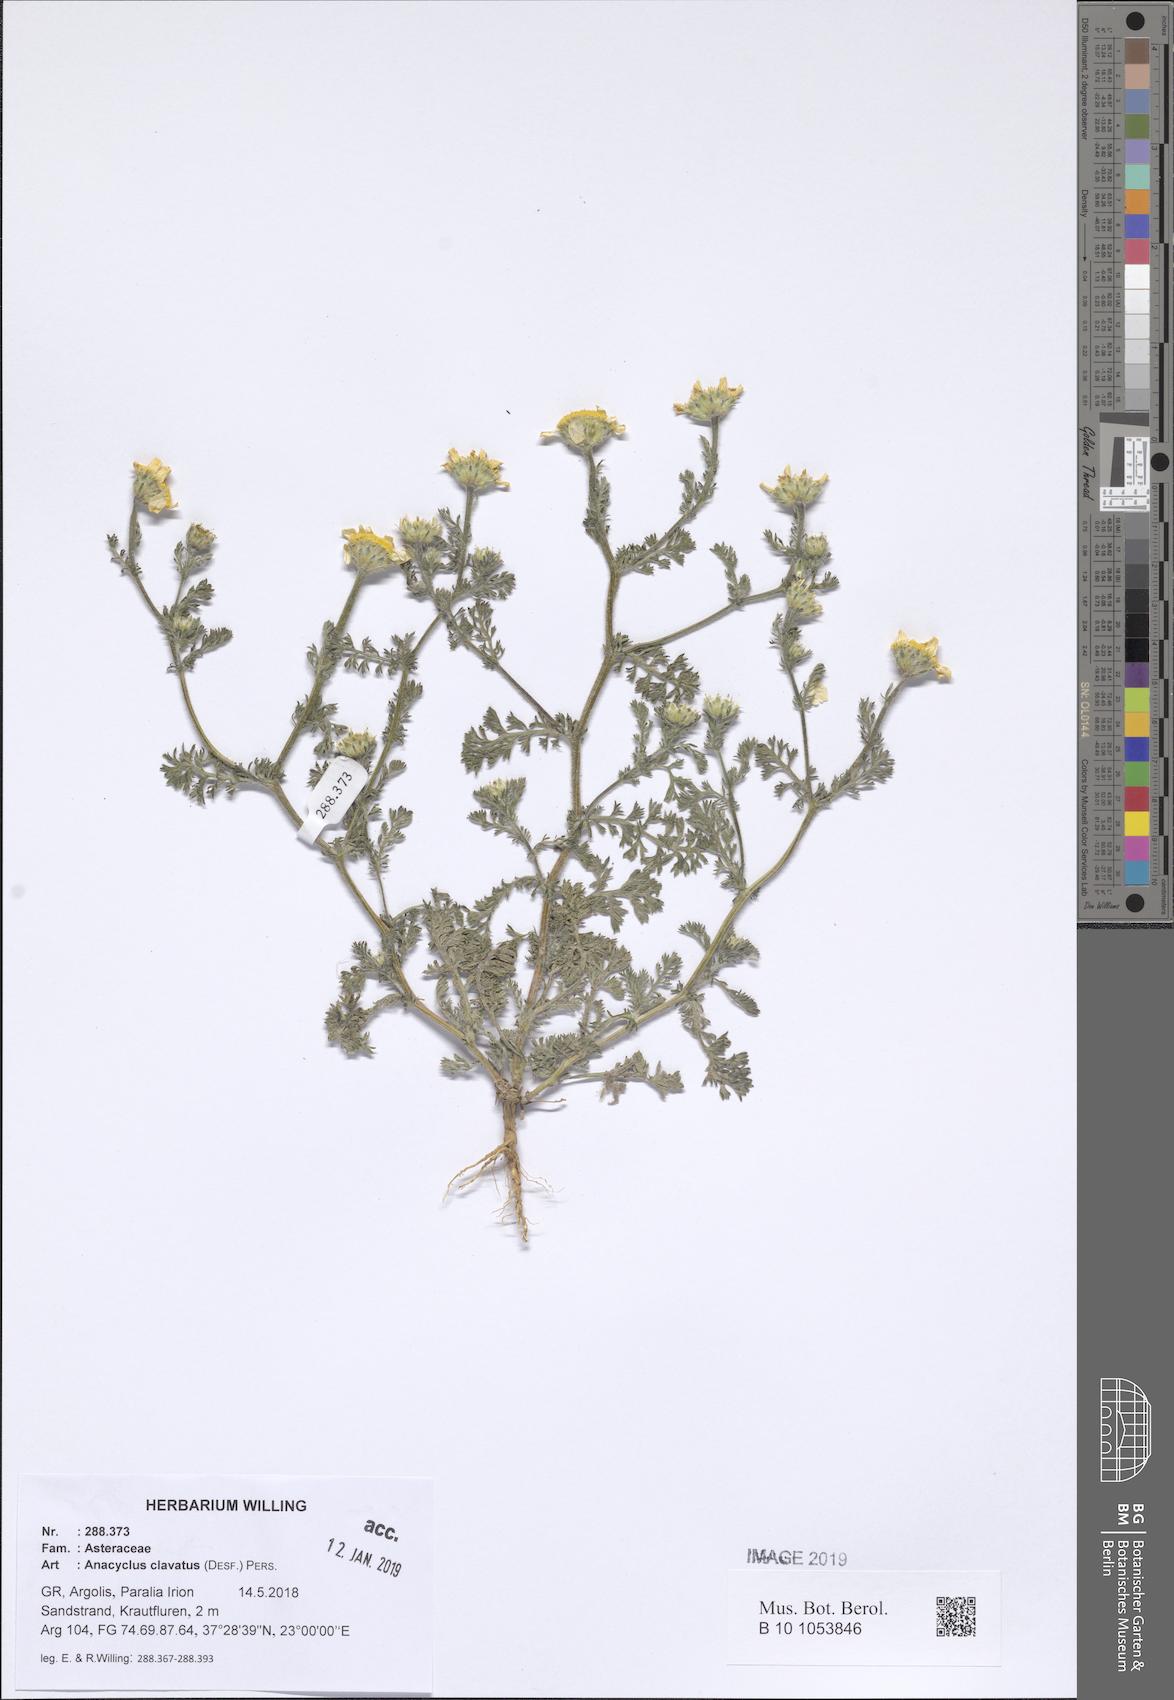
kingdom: Plantae
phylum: Tracheophyta
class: Magnoliopsida
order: Asterales
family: Asteraceae
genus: Anacyclus
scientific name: Anacyclus clavatus
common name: Whitebuttons
